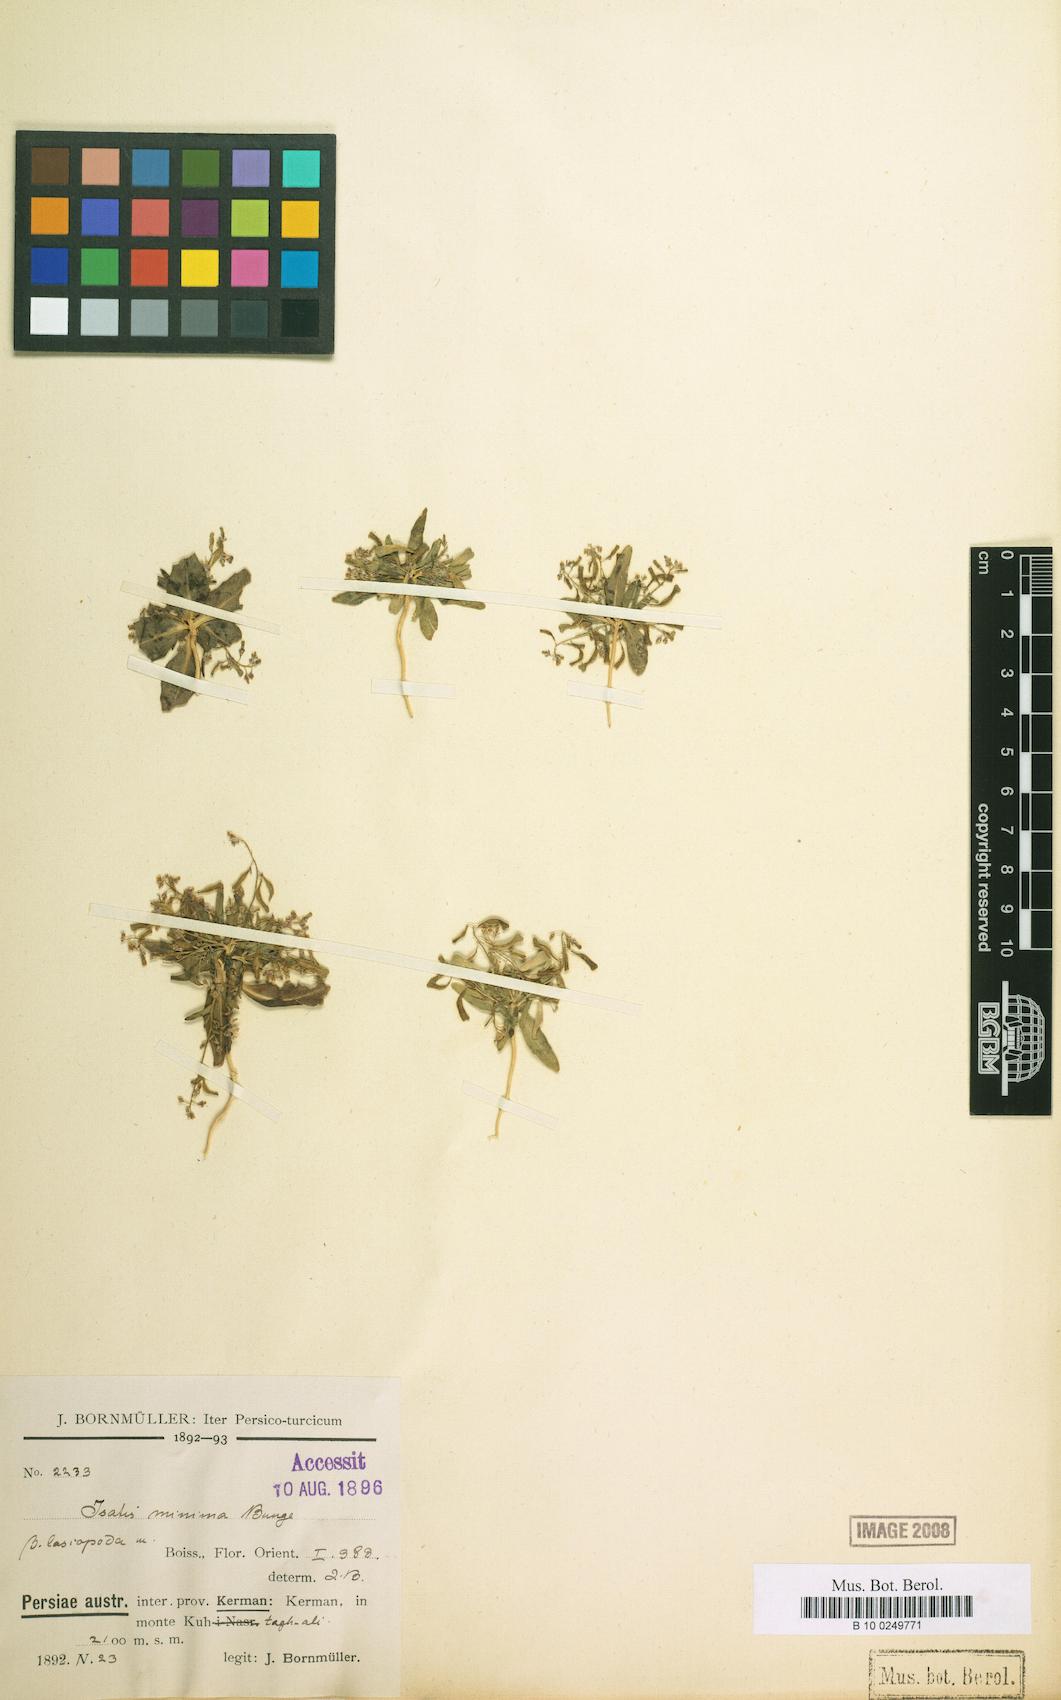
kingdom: Plantae
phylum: Tracheophyta
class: Magnoliopsida
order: Brassicales
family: Brassicaceae
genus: Isatis
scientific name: Isatis minima
